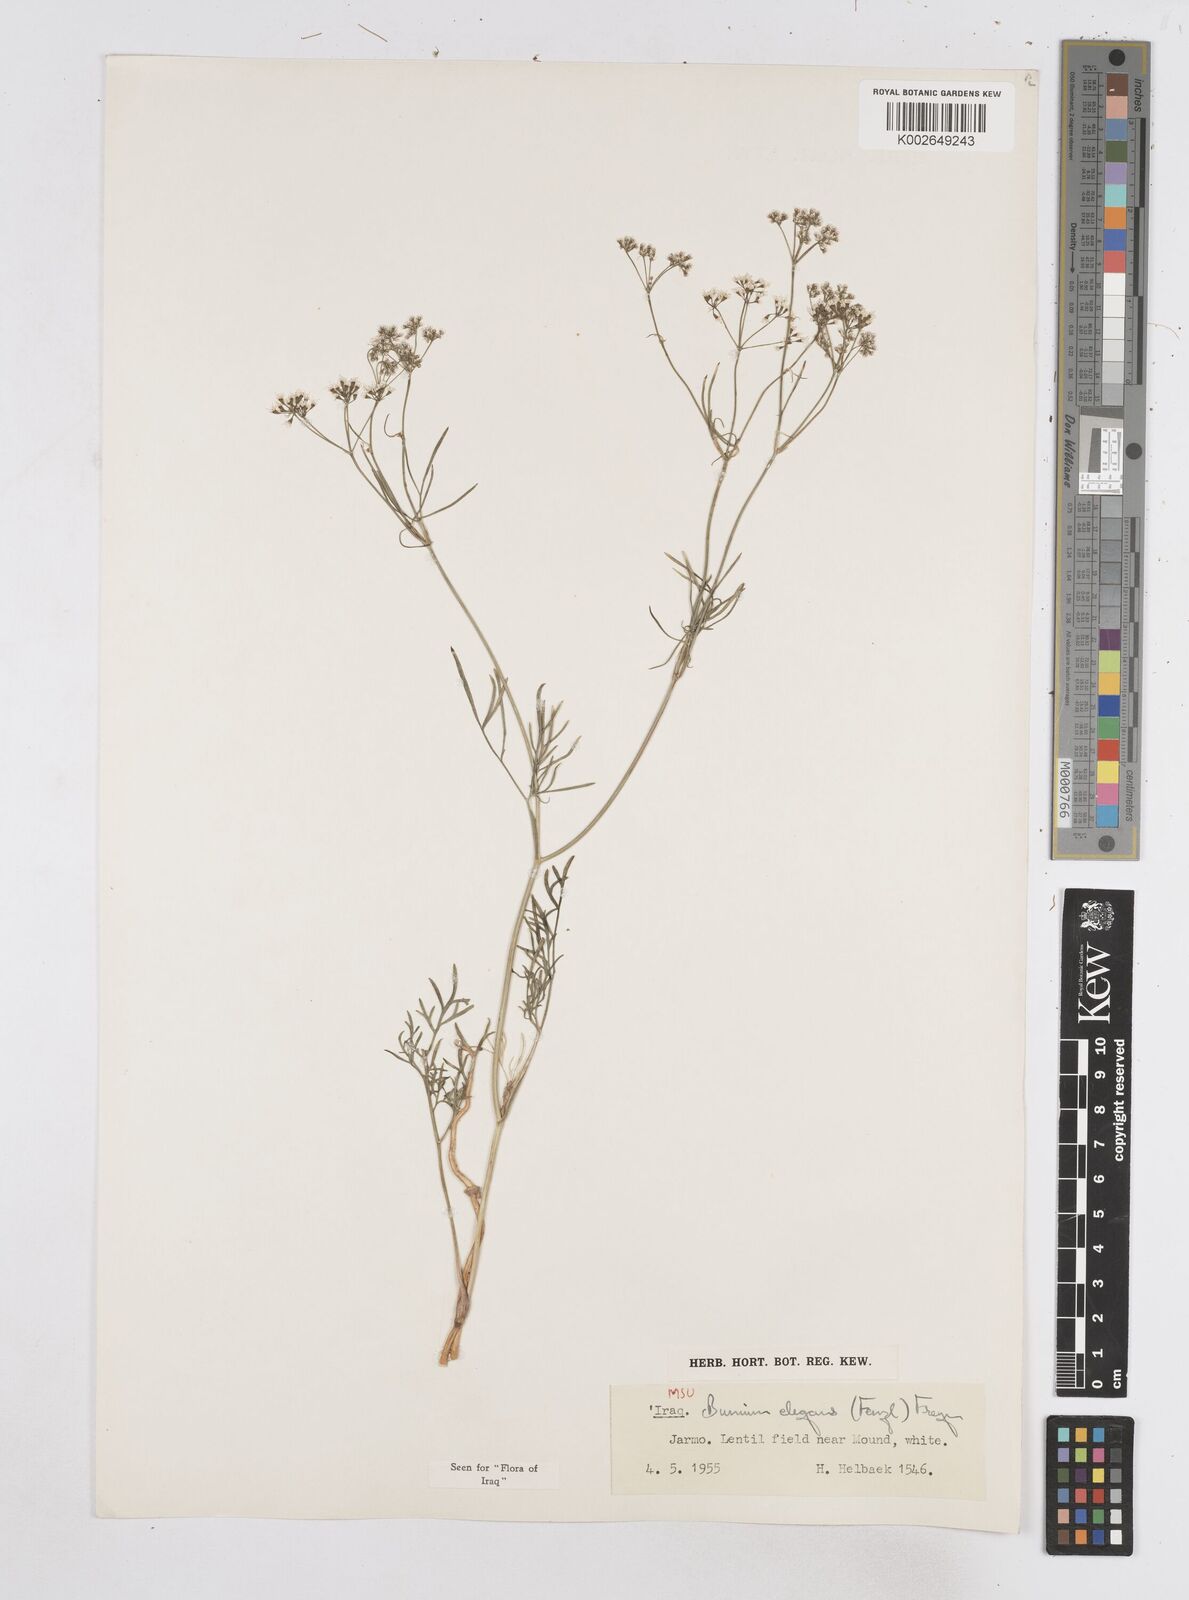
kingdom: Plantae
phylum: Tracheophyta
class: Magnoliopsida
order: Apiales
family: Apiaceae
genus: Bunium
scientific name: Bunium paucifolium
